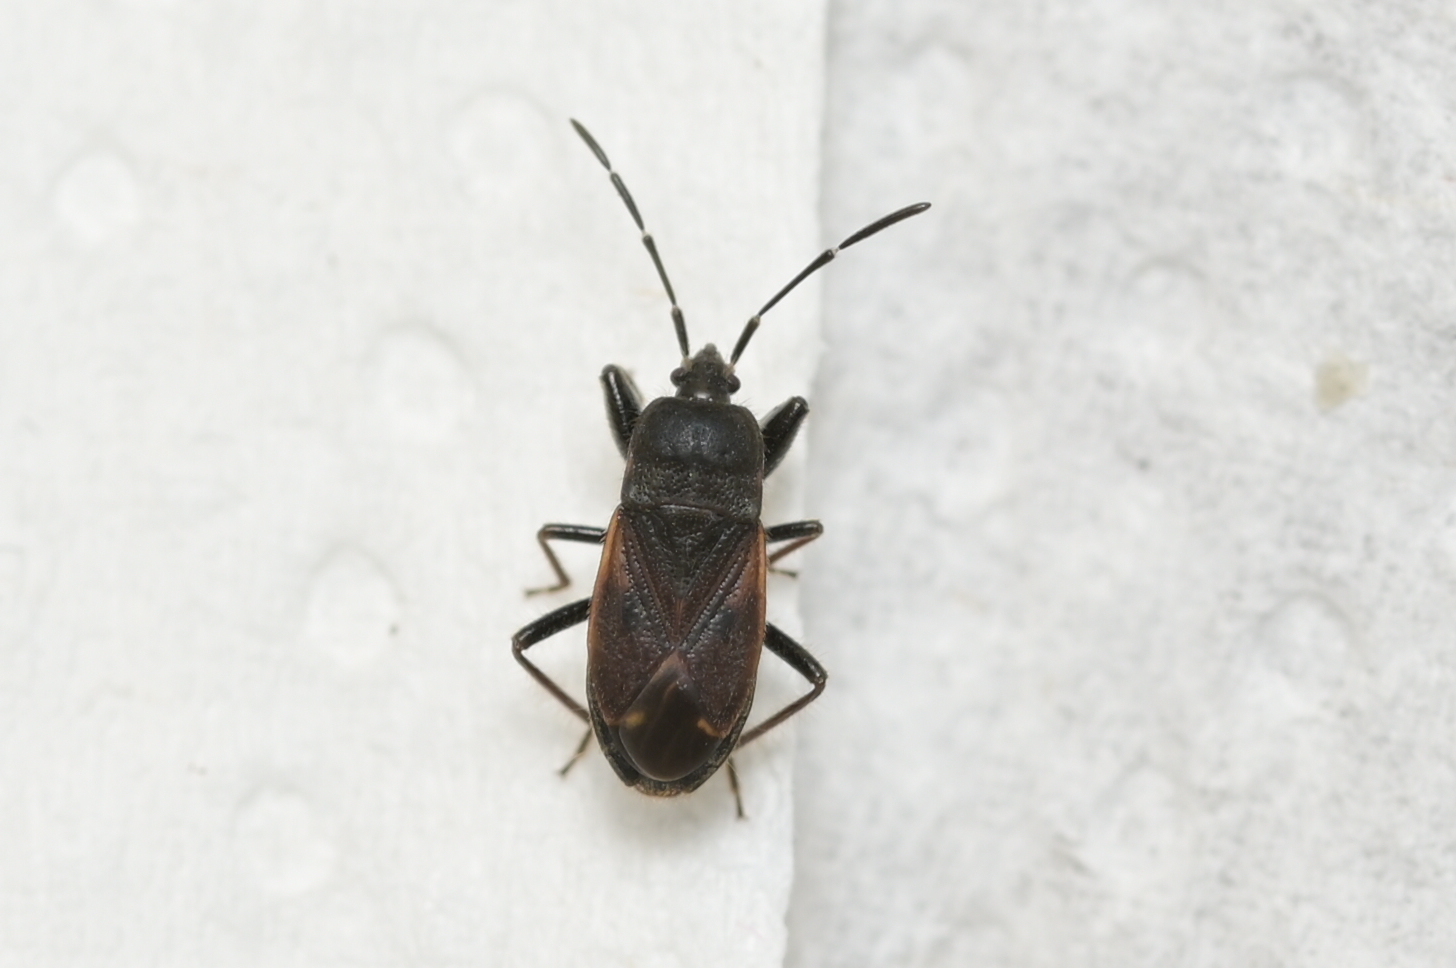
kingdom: Animalia
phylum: Arthropoda
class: Insecta
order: Hemiptera
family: Rhyparochromidae
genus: Eremocoris
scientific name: Eremocoris plebejus
